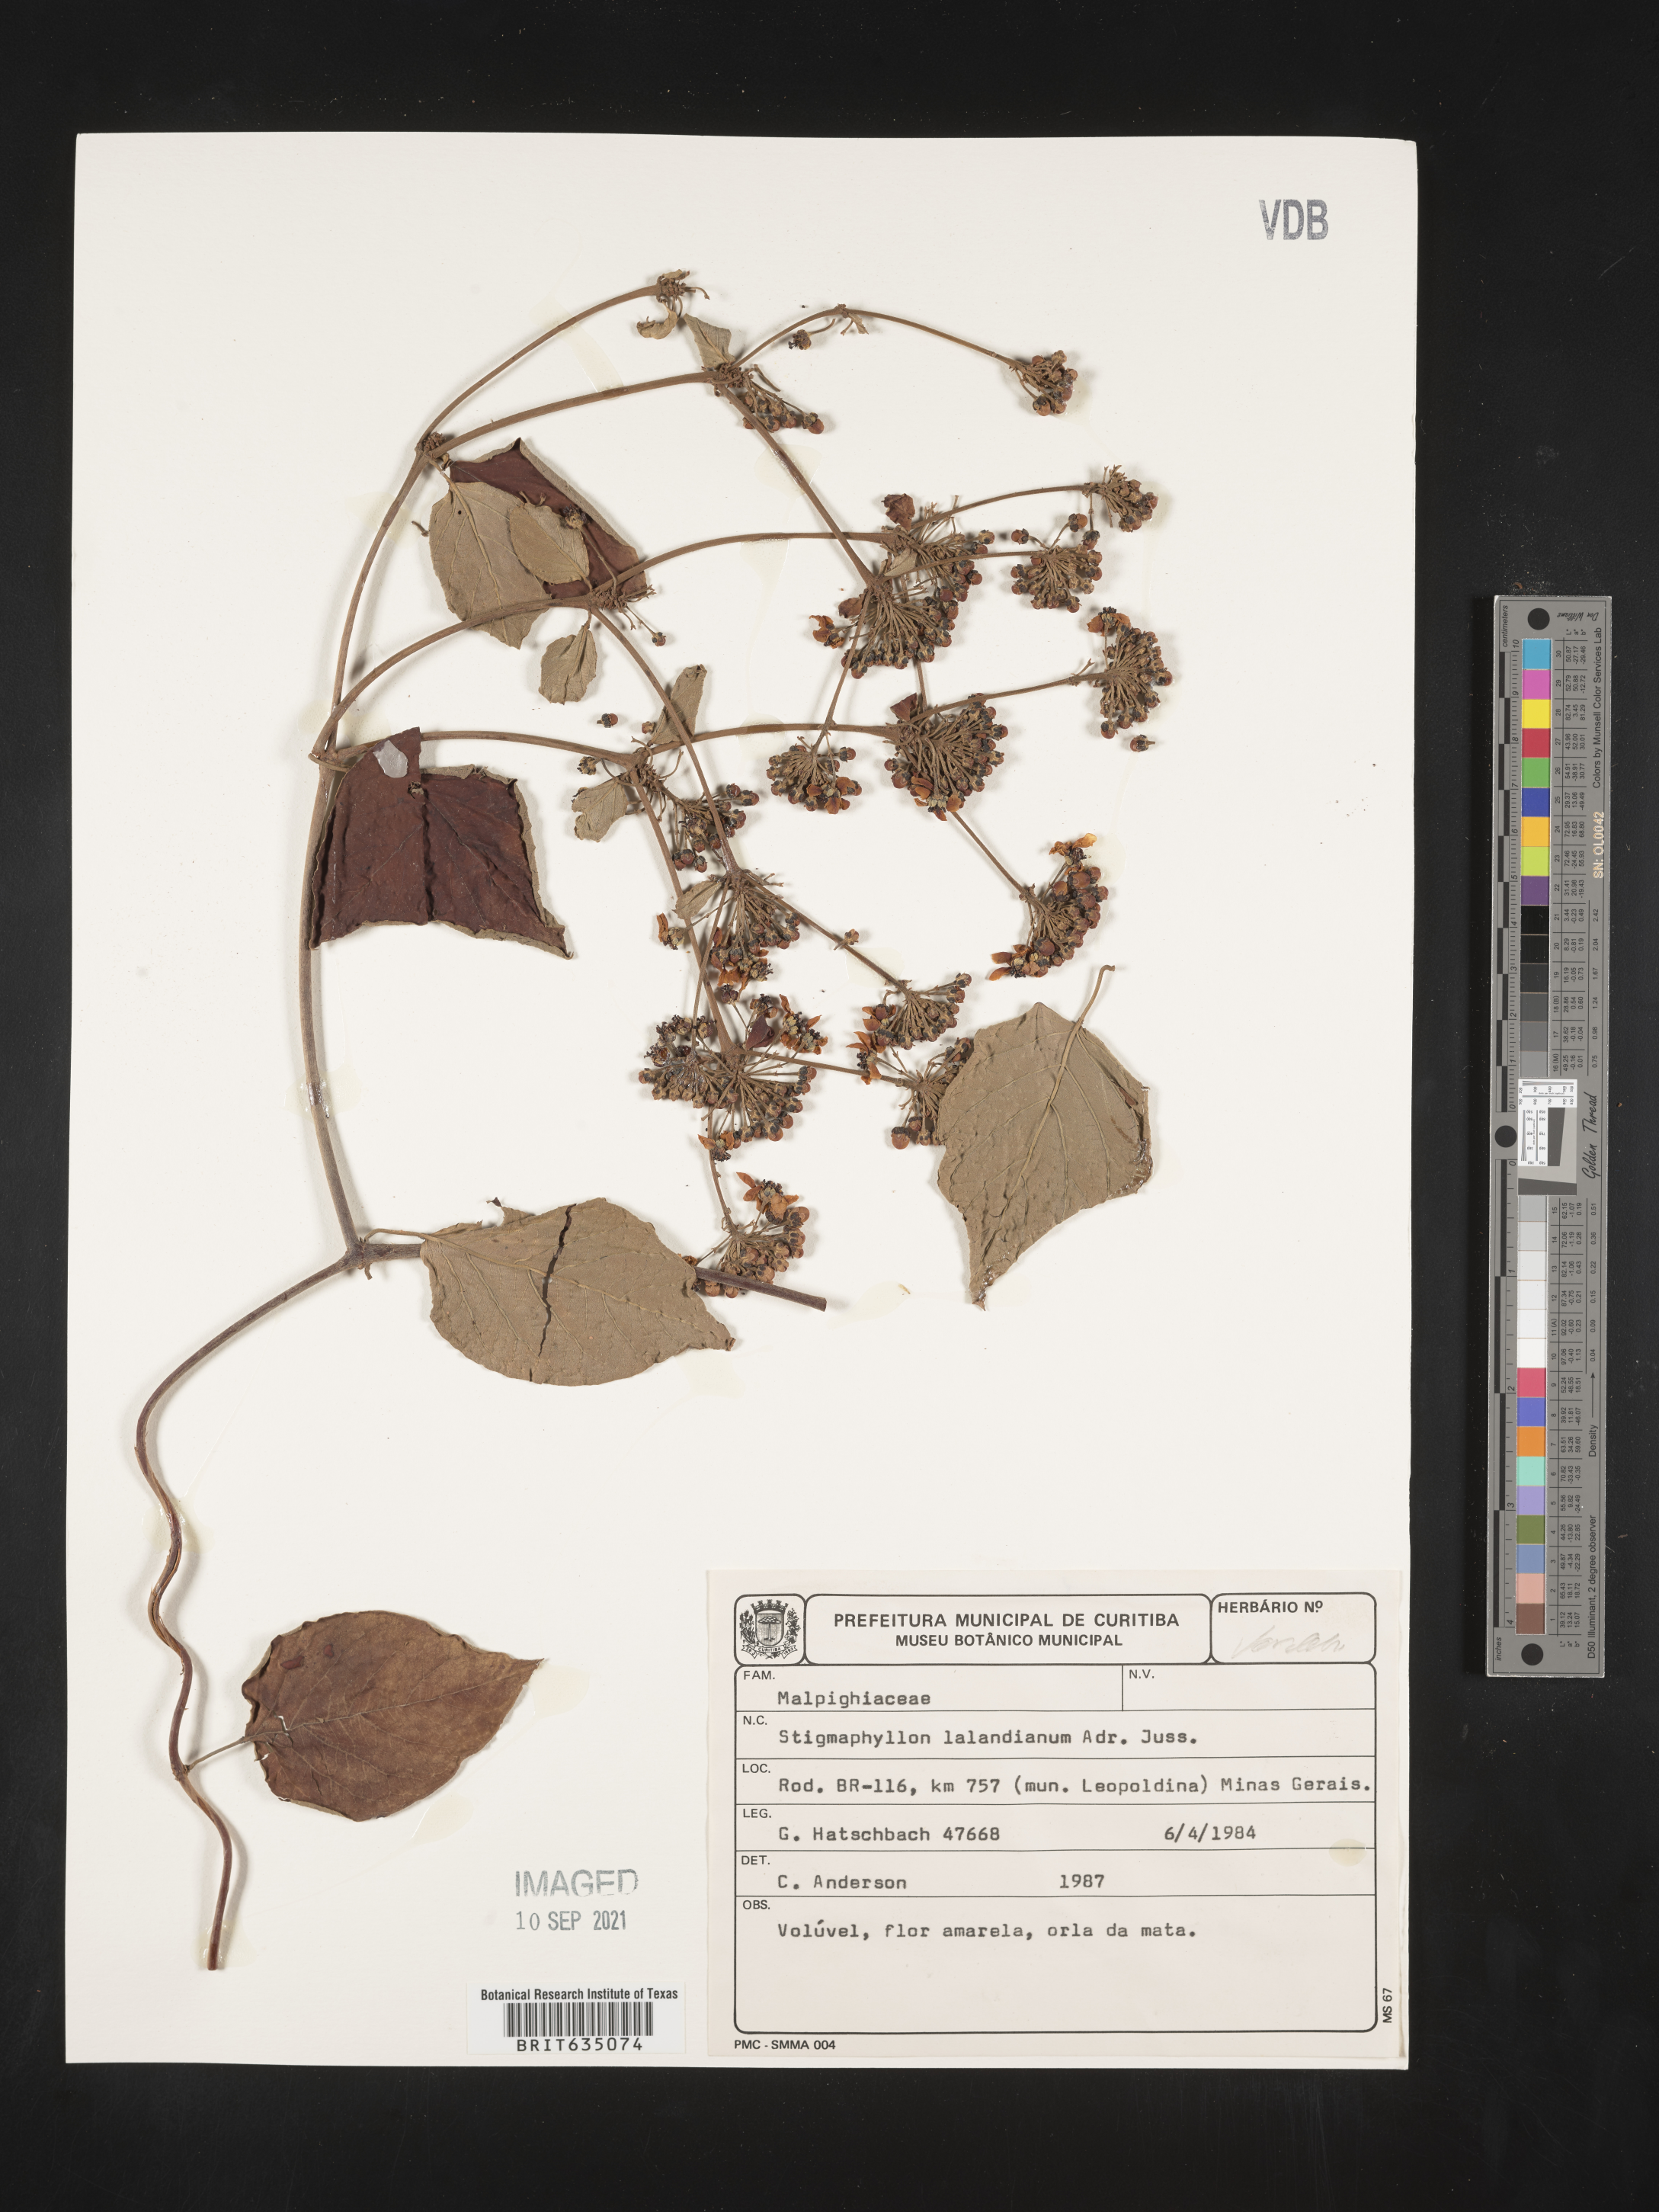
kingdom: Plantae
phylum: Tracheophyta
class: Magnoliopsida
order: Malpighiales
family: Malpighiaceae
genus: Stigmaphyllon
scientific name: Stigmaphyllon
